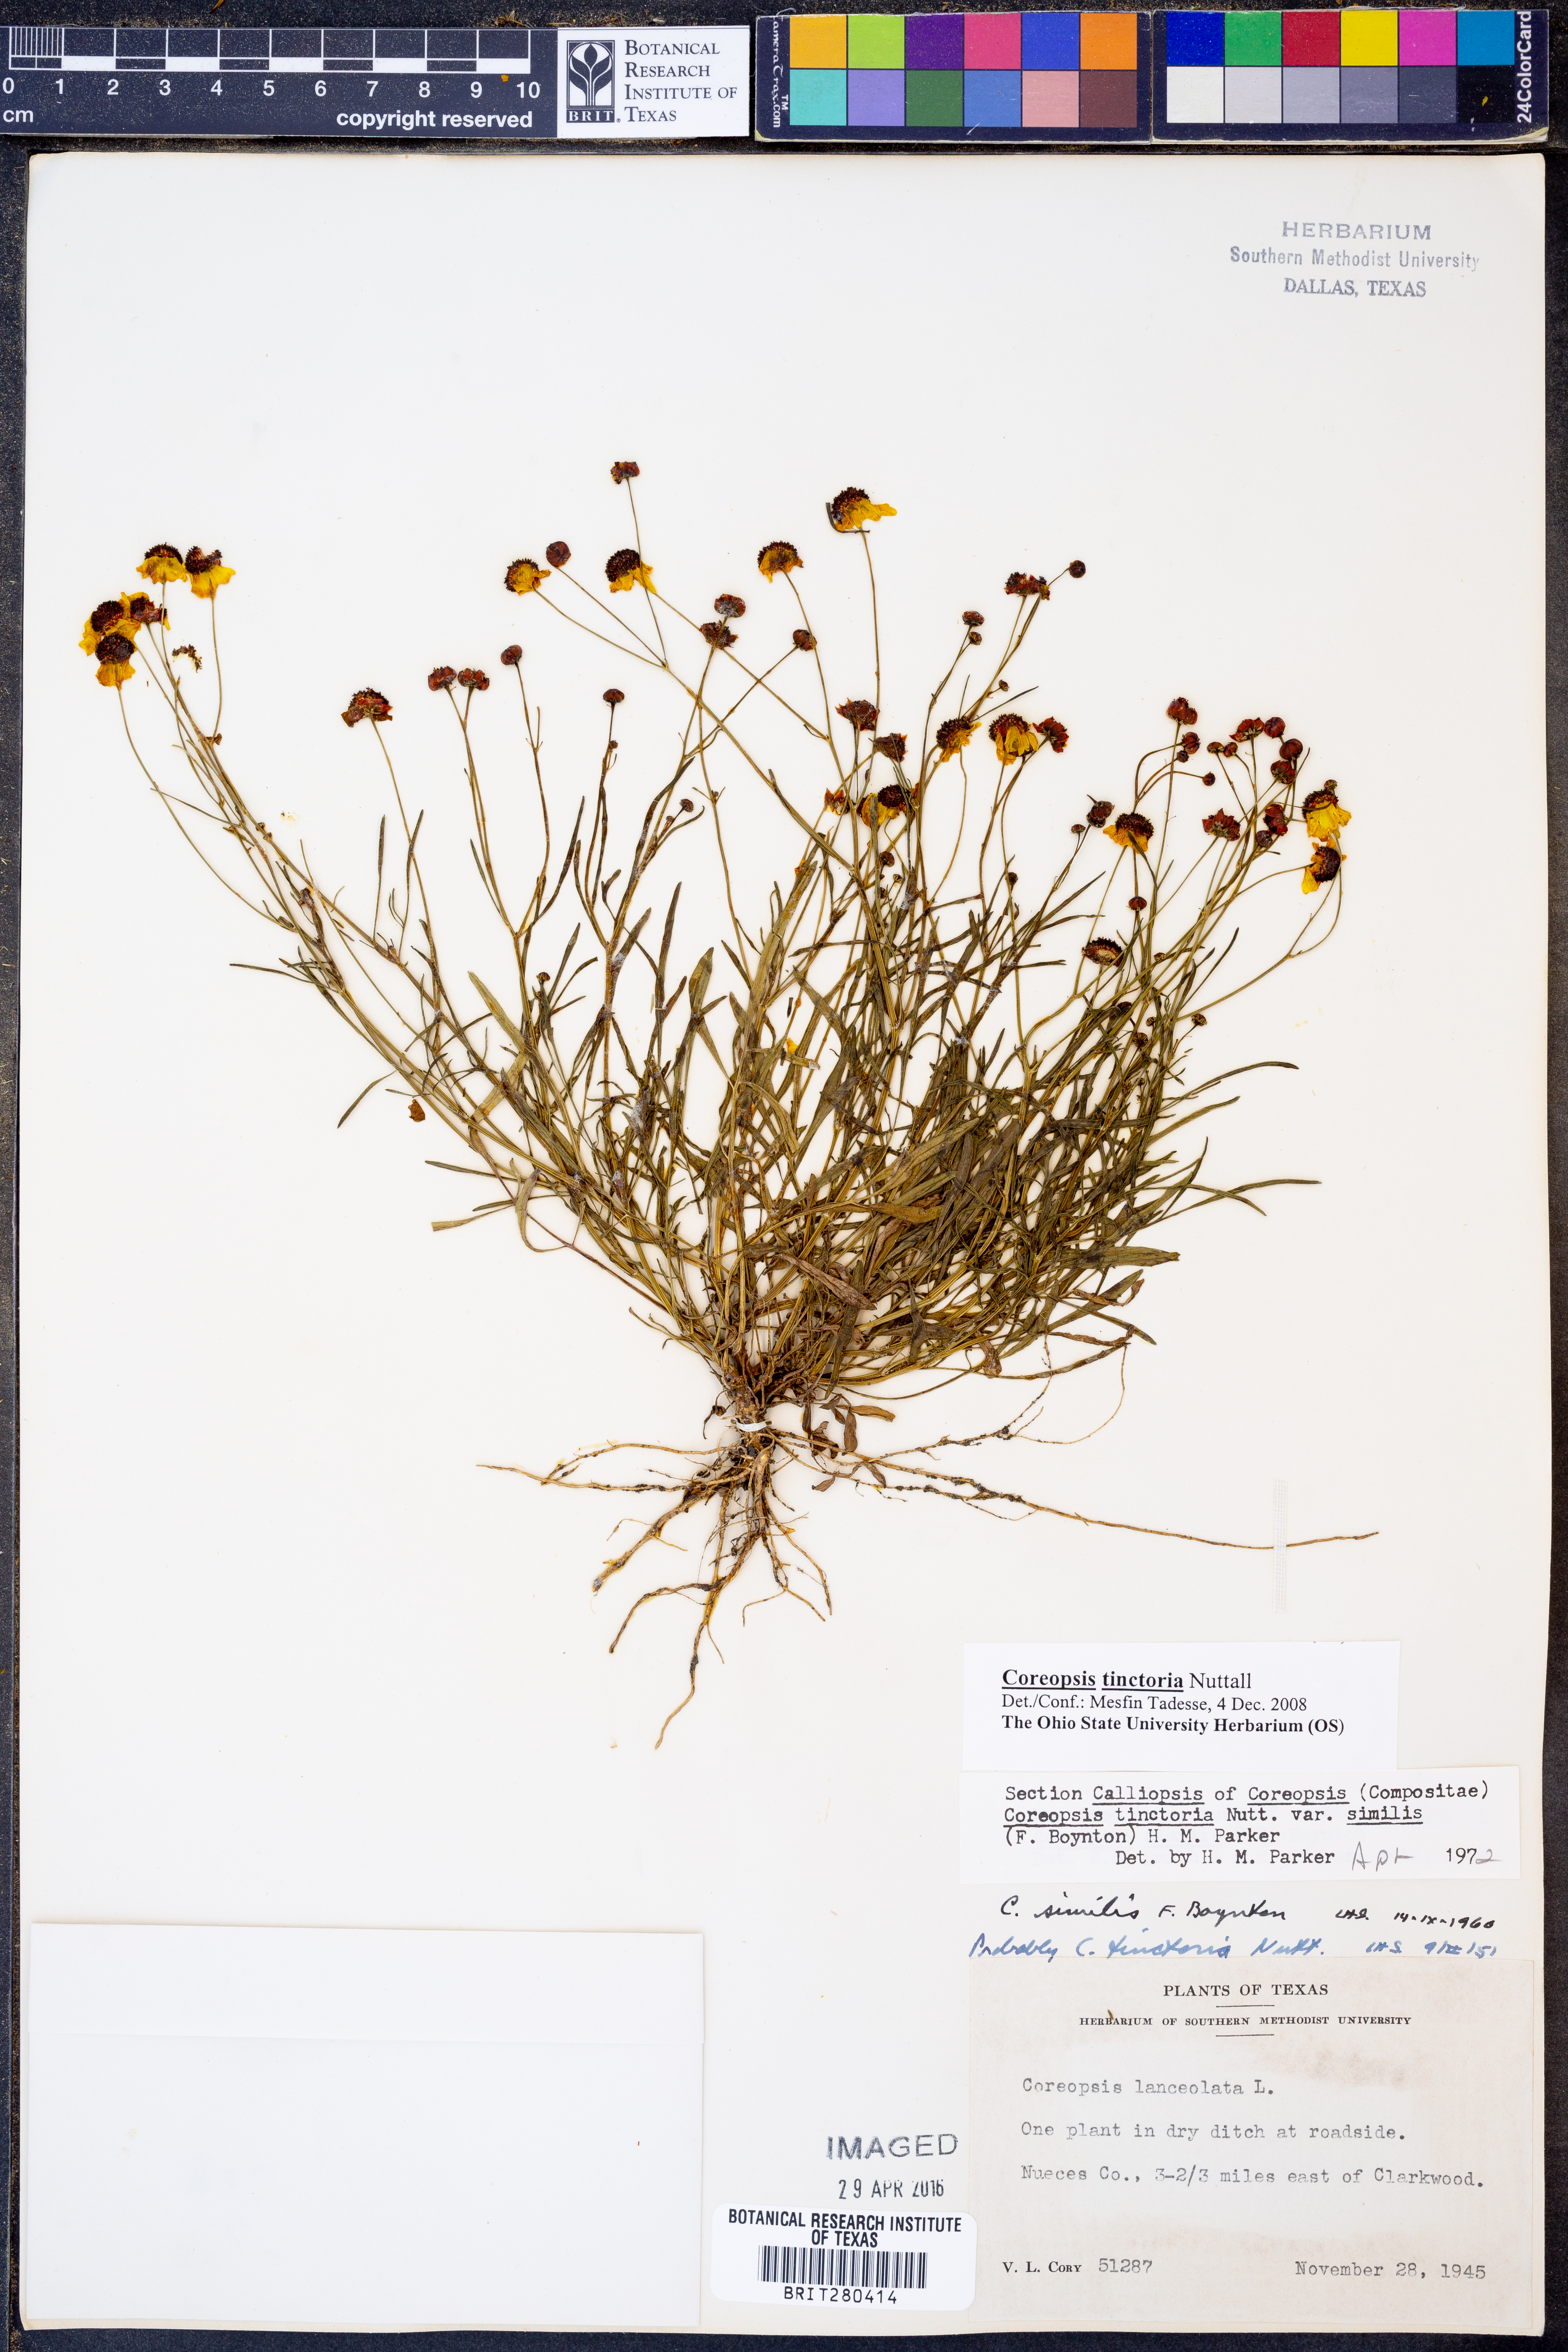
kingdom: Plantae
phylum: Tracheophyta
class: Magnoliopsida
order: Asterales
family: Asteraceae
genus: Coreopsis
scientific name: Coreopsis tinctoria
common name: Garden tickseed
